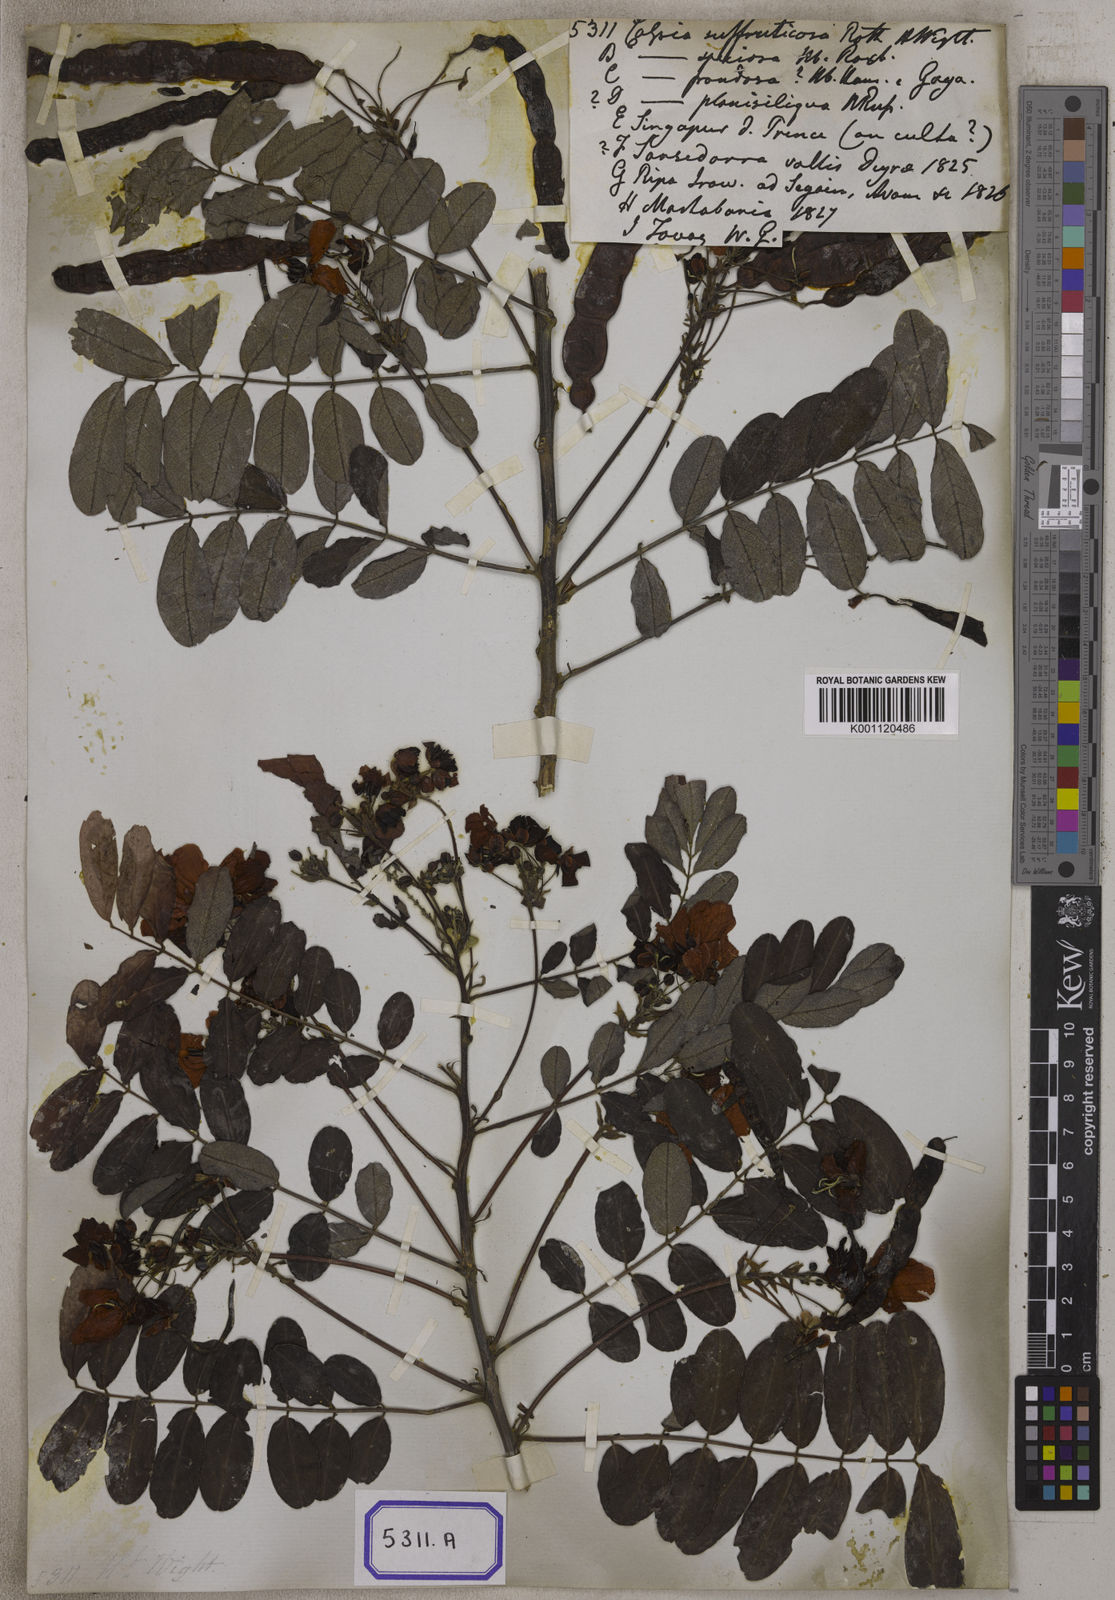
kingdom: Plantae
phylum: Tracheophyta
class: Magnoliopsida
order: Fabales
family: Fabaceae
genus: Senna
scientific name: Senna surattensis
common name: Glossy shower
